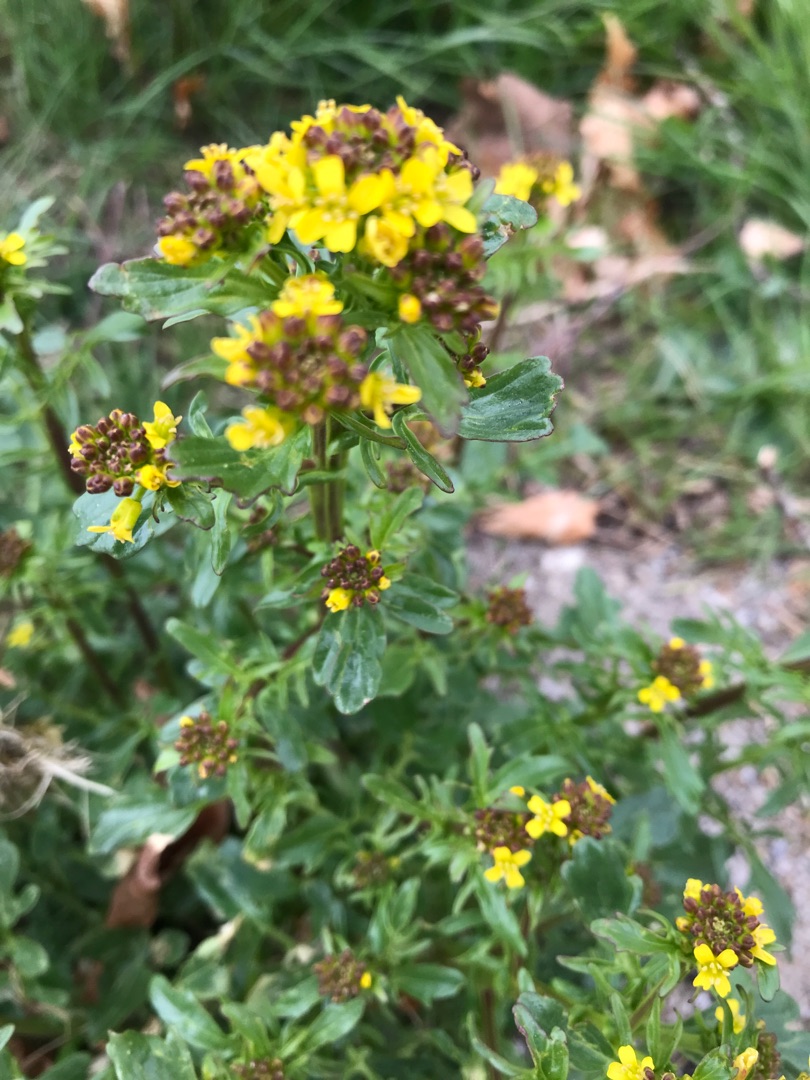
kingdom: Plantae
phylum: Tracheophyta
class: Magnoliopsida
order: Brassicales
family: Brassicaceae
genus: Barbarea
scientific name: Barbarea vulgaris
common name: Almindelig vinterkarse
